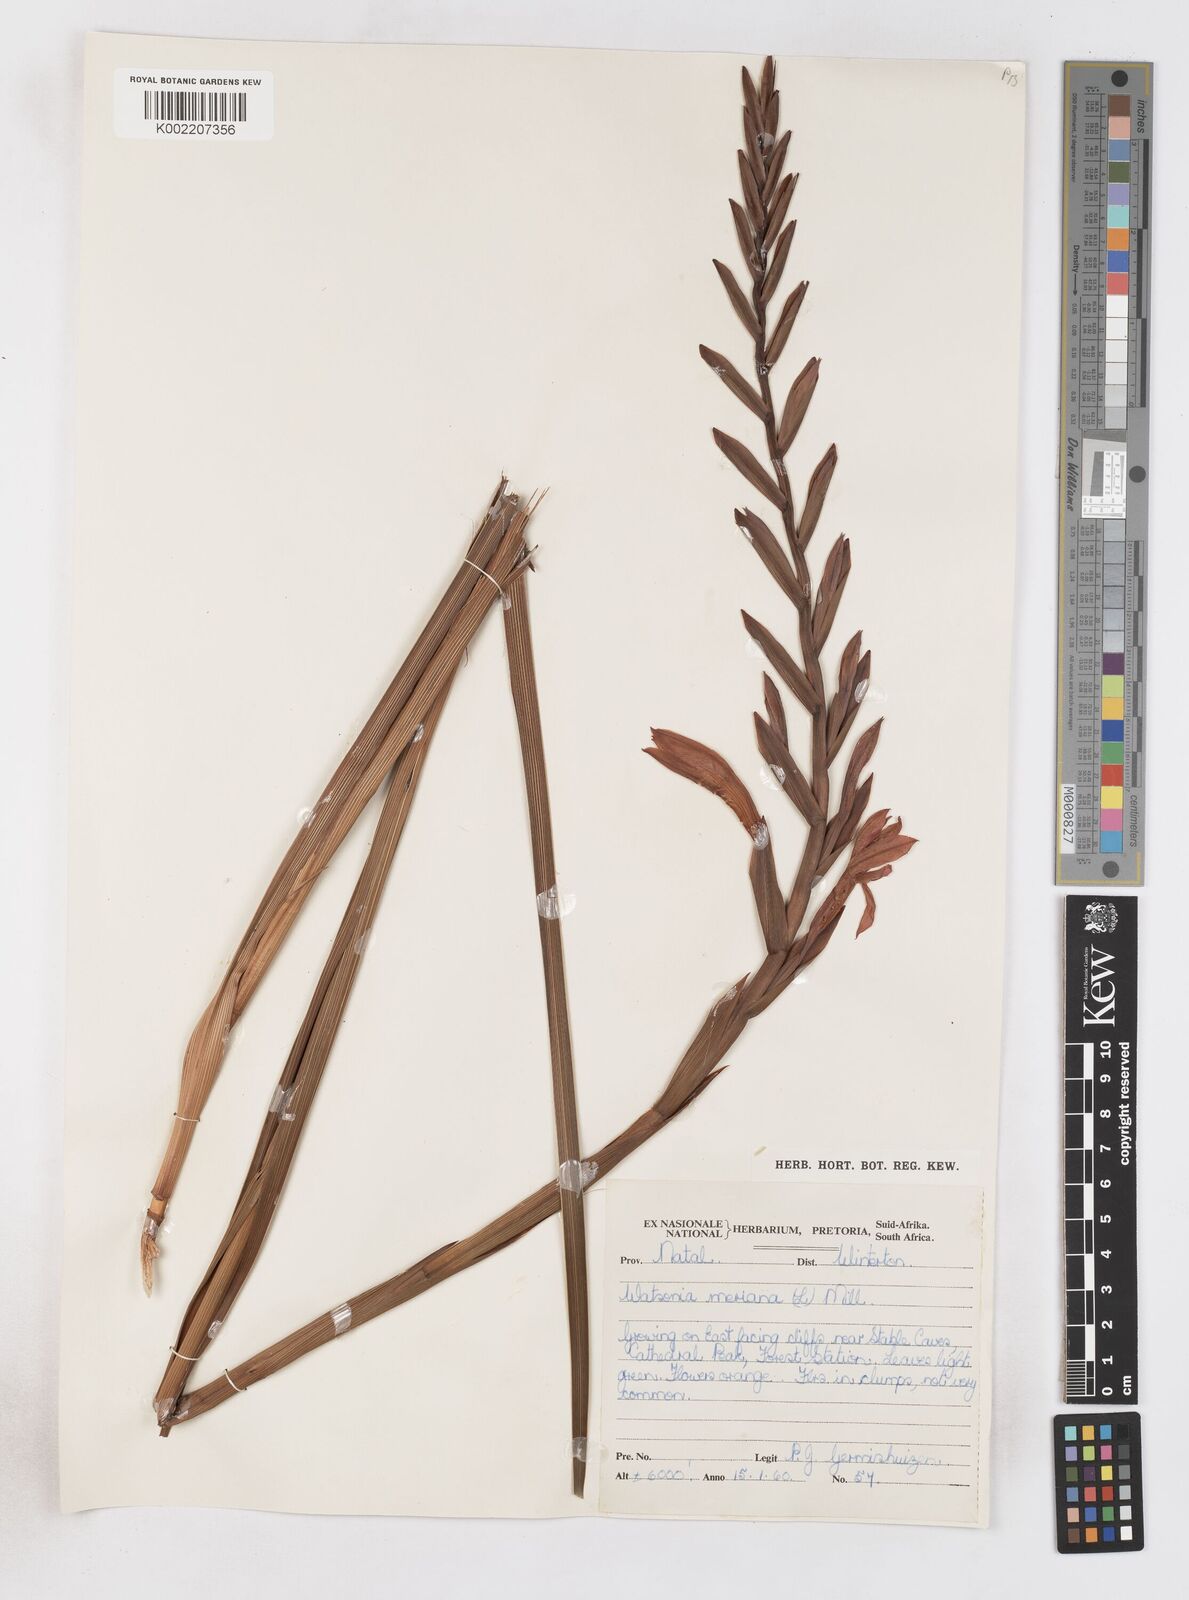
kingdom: Plantae
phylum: Tracheophyta
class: Liliopsida
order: Asparagales
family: Iridaceae
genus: Watsonia
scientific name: Watsonia pillansii
